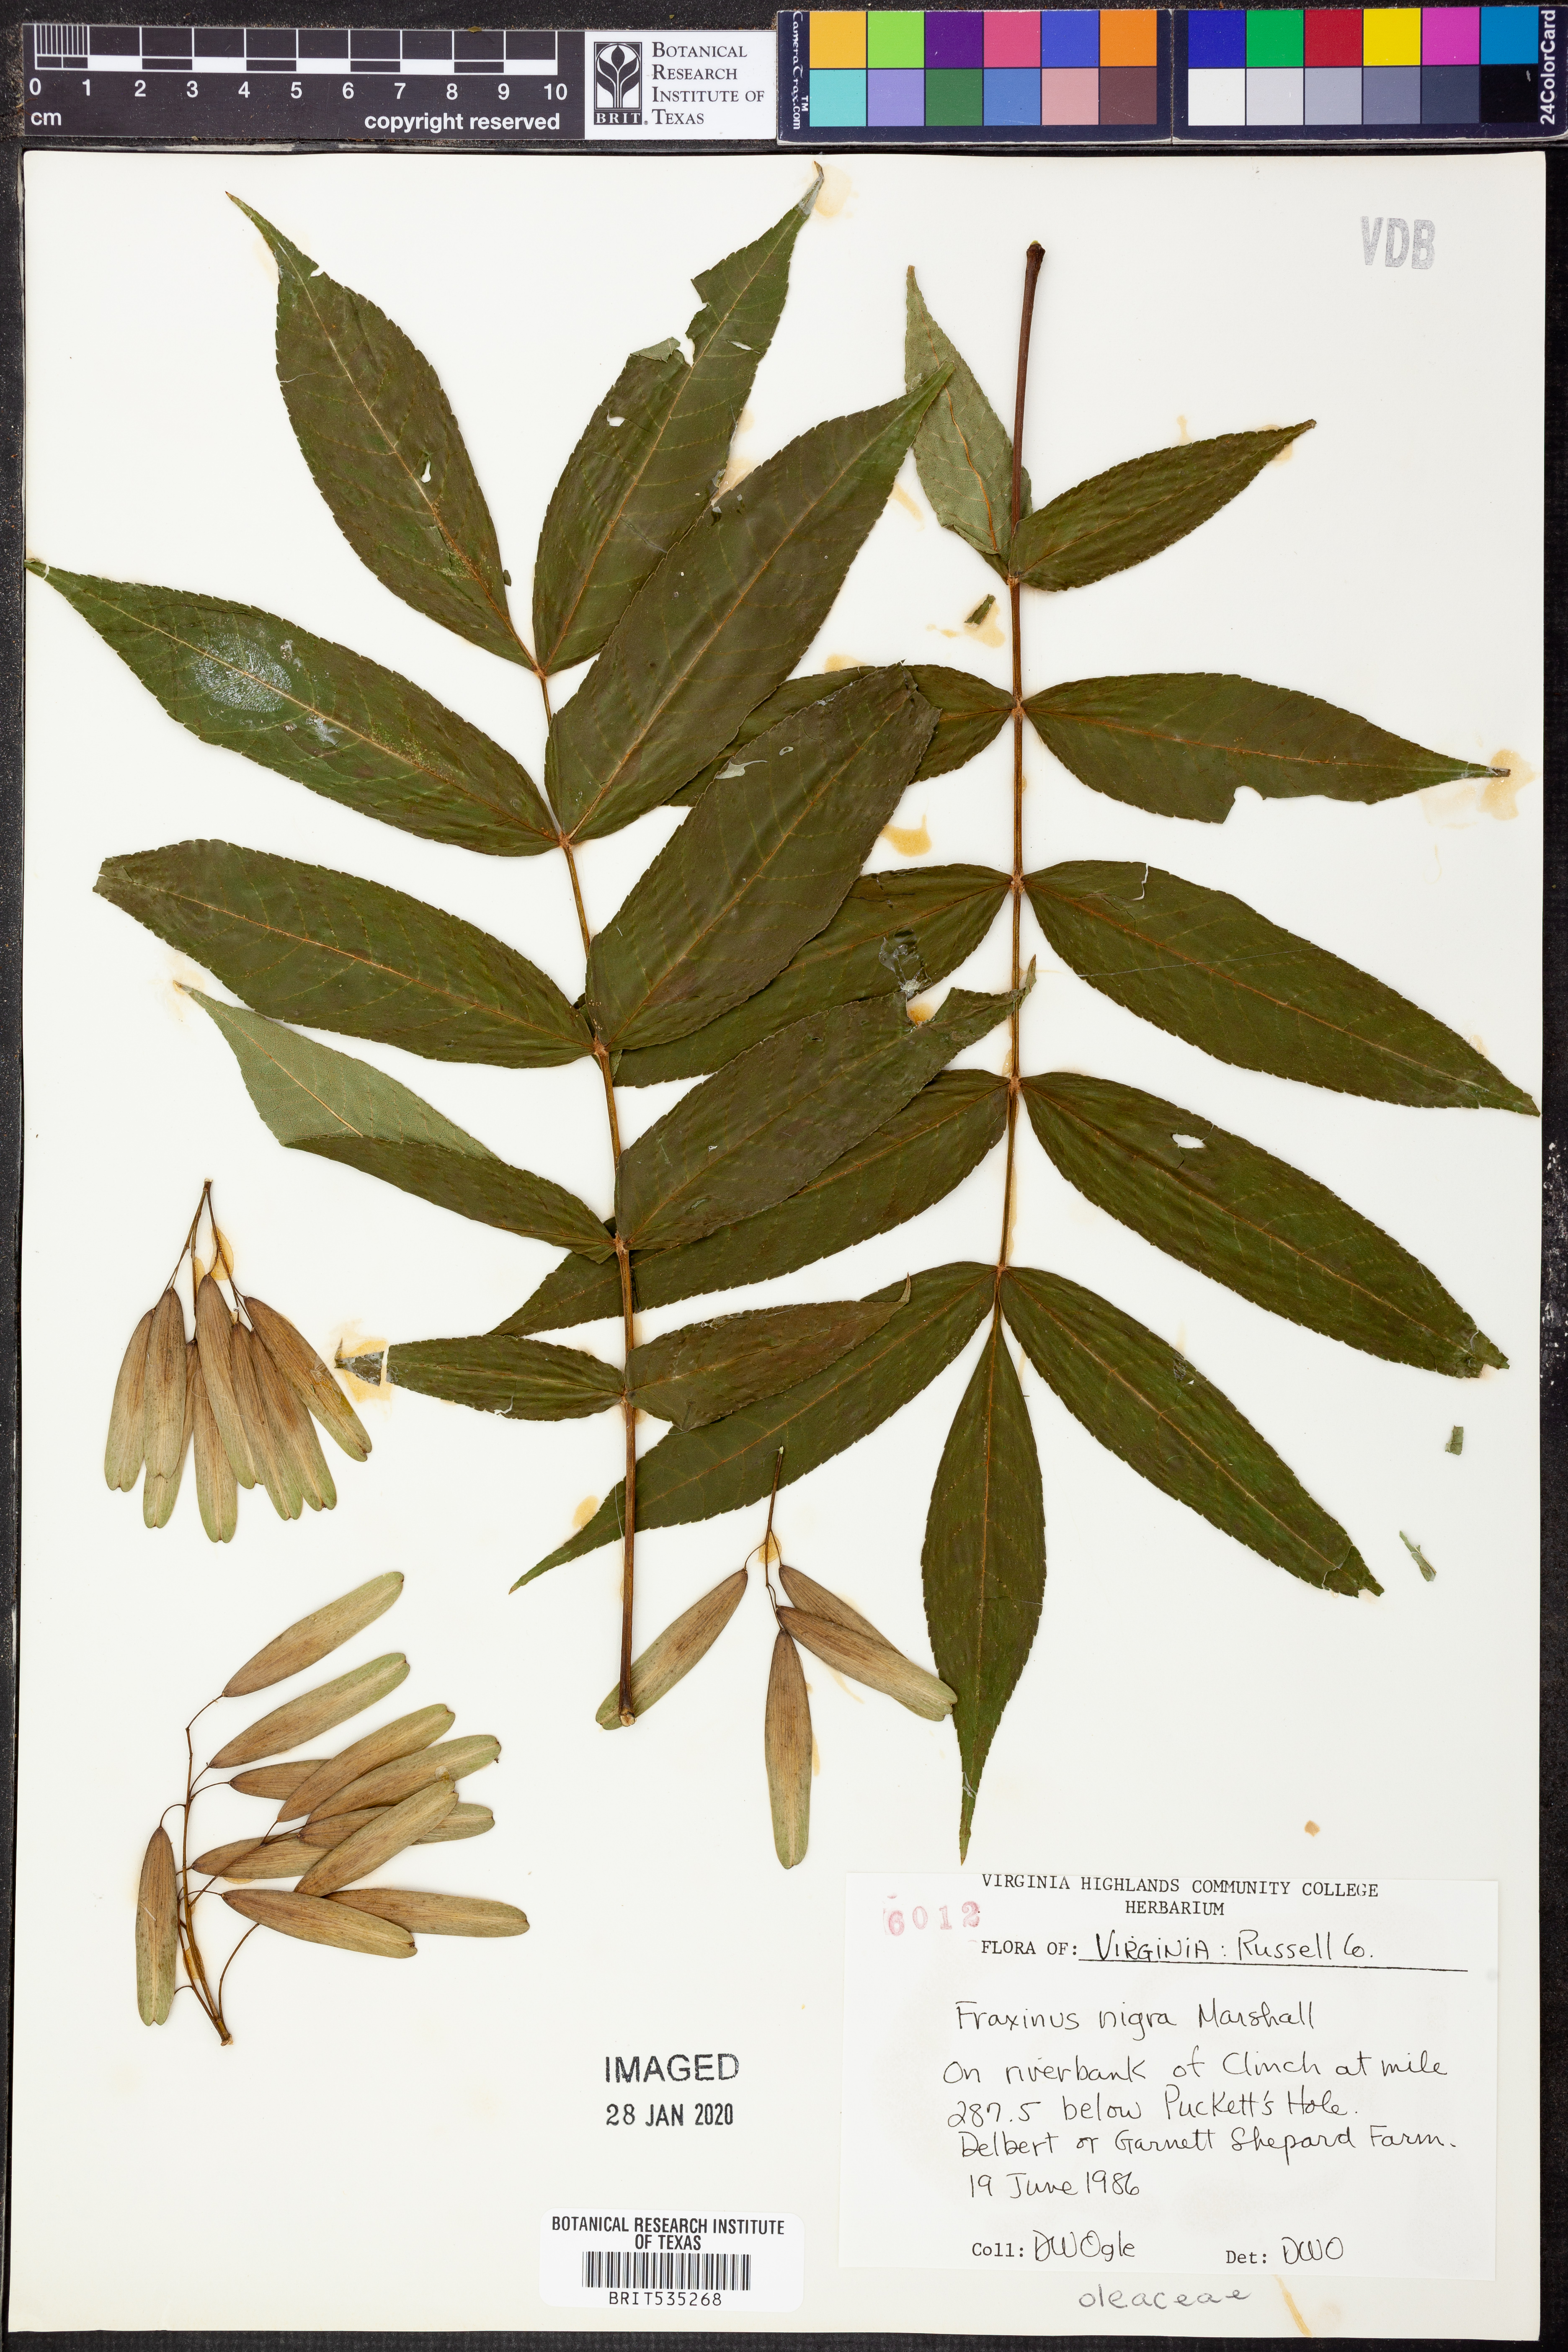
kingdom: Plantae
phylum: Tracheophyta
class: Magnoliopsida
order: Lamiales
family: Oleaceae
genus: Fraxinus
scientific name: Fraxinus nigra
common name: Black ash
